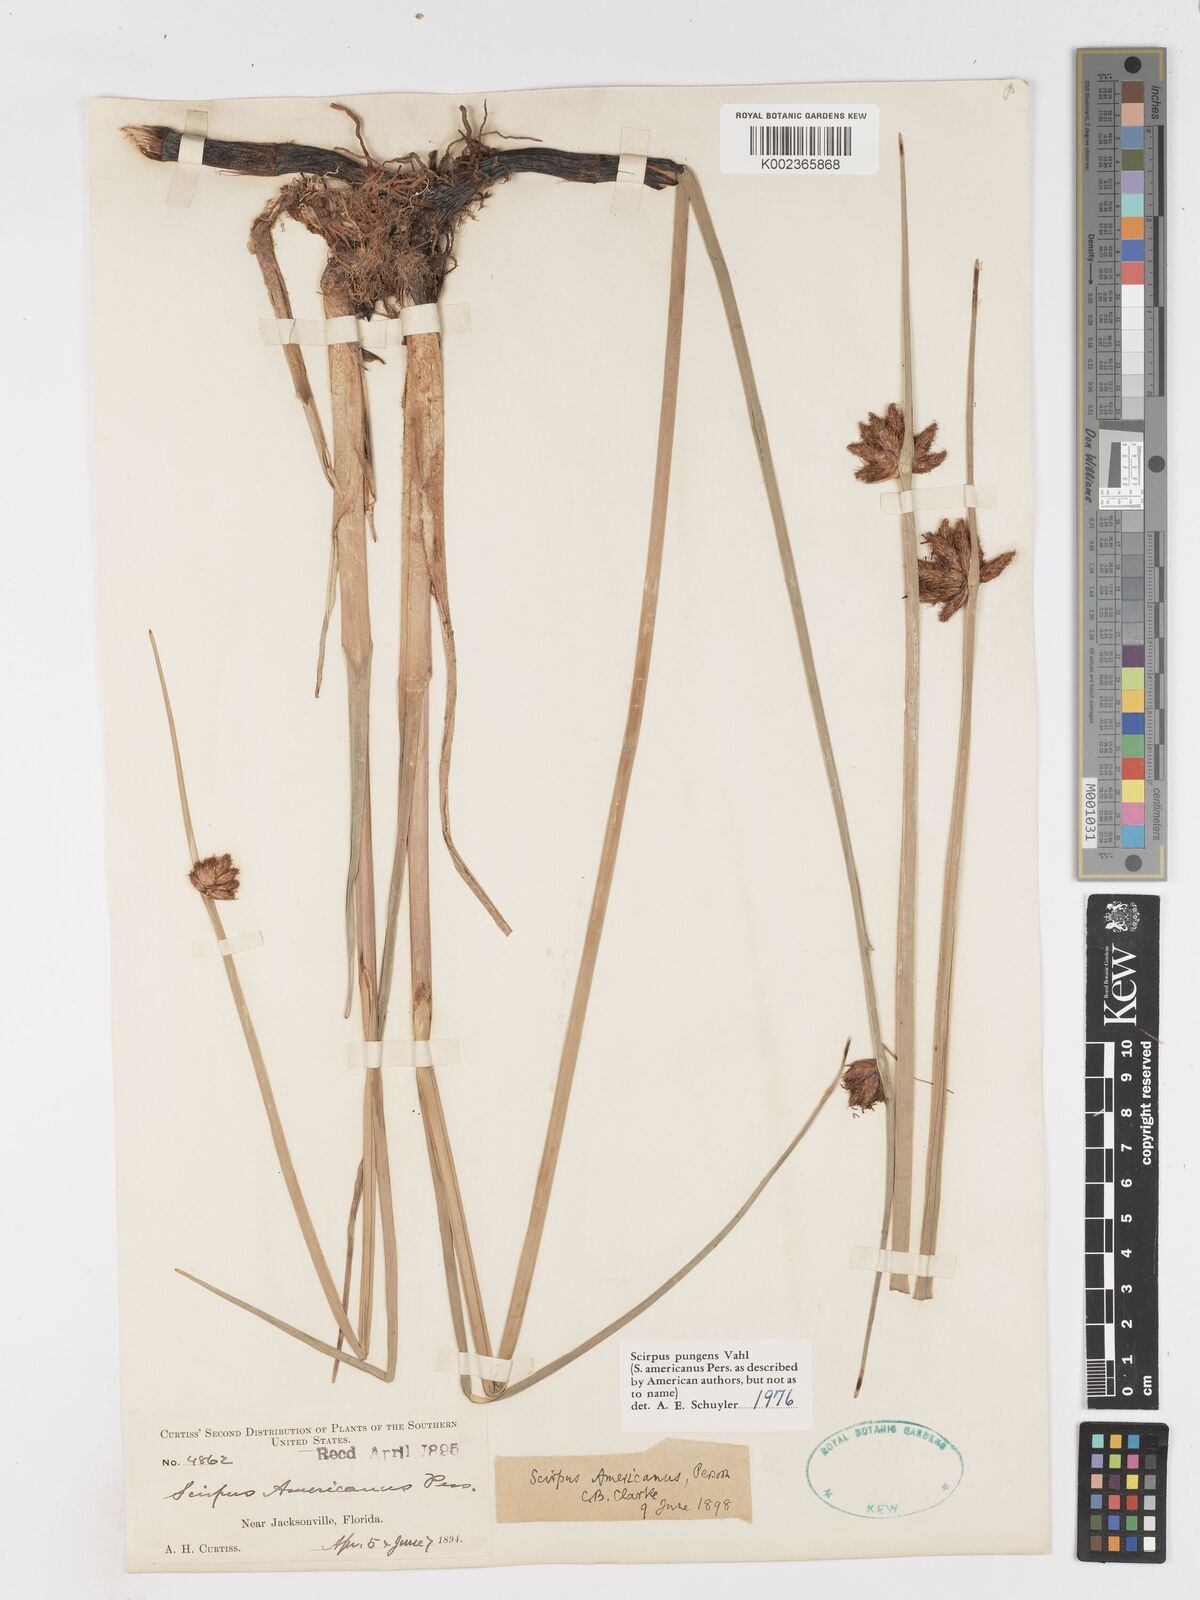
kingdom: Plantae
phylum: Tracheophyta
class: Liliopsida
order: Poales
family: Cyperaceae
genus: Schoenoplectus
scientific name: Schoenoplectus pungens
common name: Sharp club-rush
